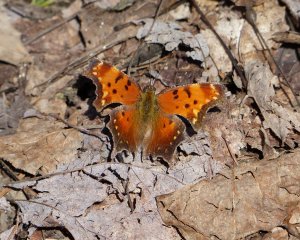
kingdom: Animalia
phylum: Arthropoda
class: Insecta
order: Lepidoptera
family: Nymphalidae
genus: Polygonia
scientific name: Polygonia progne
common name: Gray Comma
